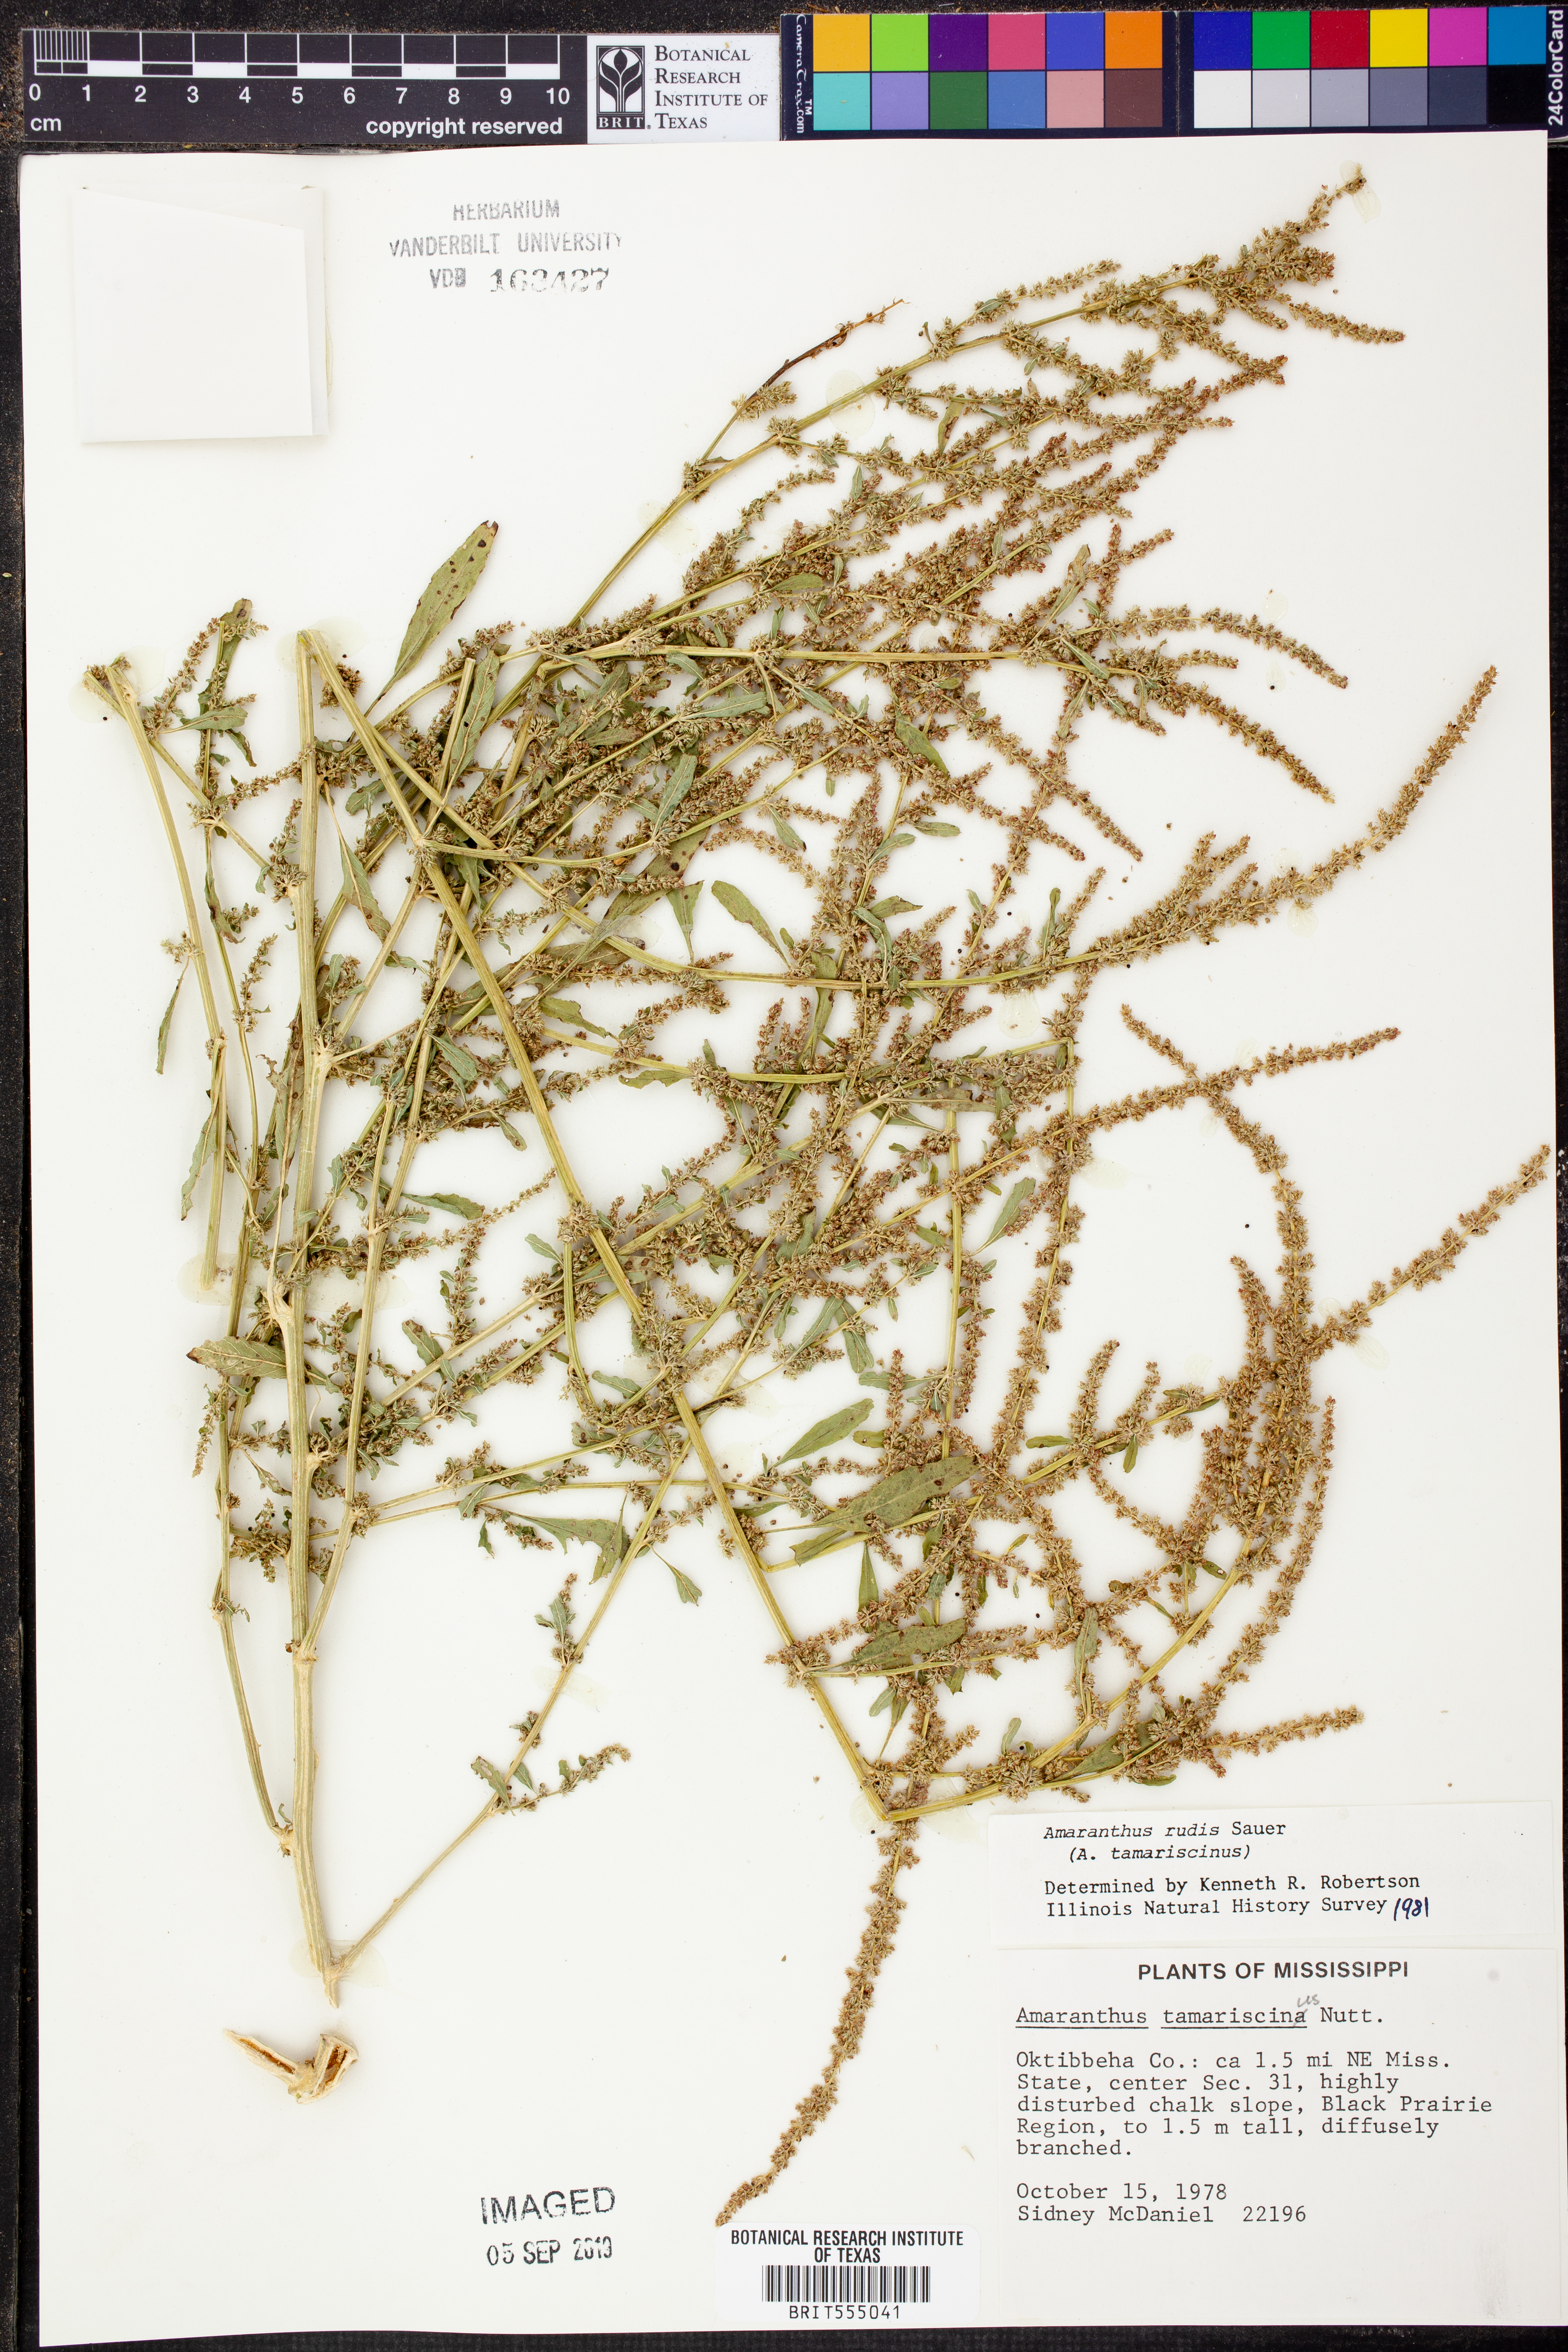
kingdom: Plantae
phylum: Tracheophyta
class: Magnoliopsida
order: Caryophyllales
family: Amaranthaceae
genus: Amaranthus
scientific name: Amaranthus tuberculatus
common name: Rough-fruit amaranth
